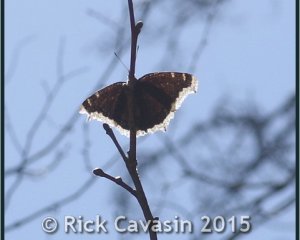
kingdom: Animalia
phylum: Arthropoda
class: Insecta
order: Lepidoptera
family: Nymphalidae
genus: Nymphalis
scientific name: Nymphalis antiopa
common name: Mourning Cloak
